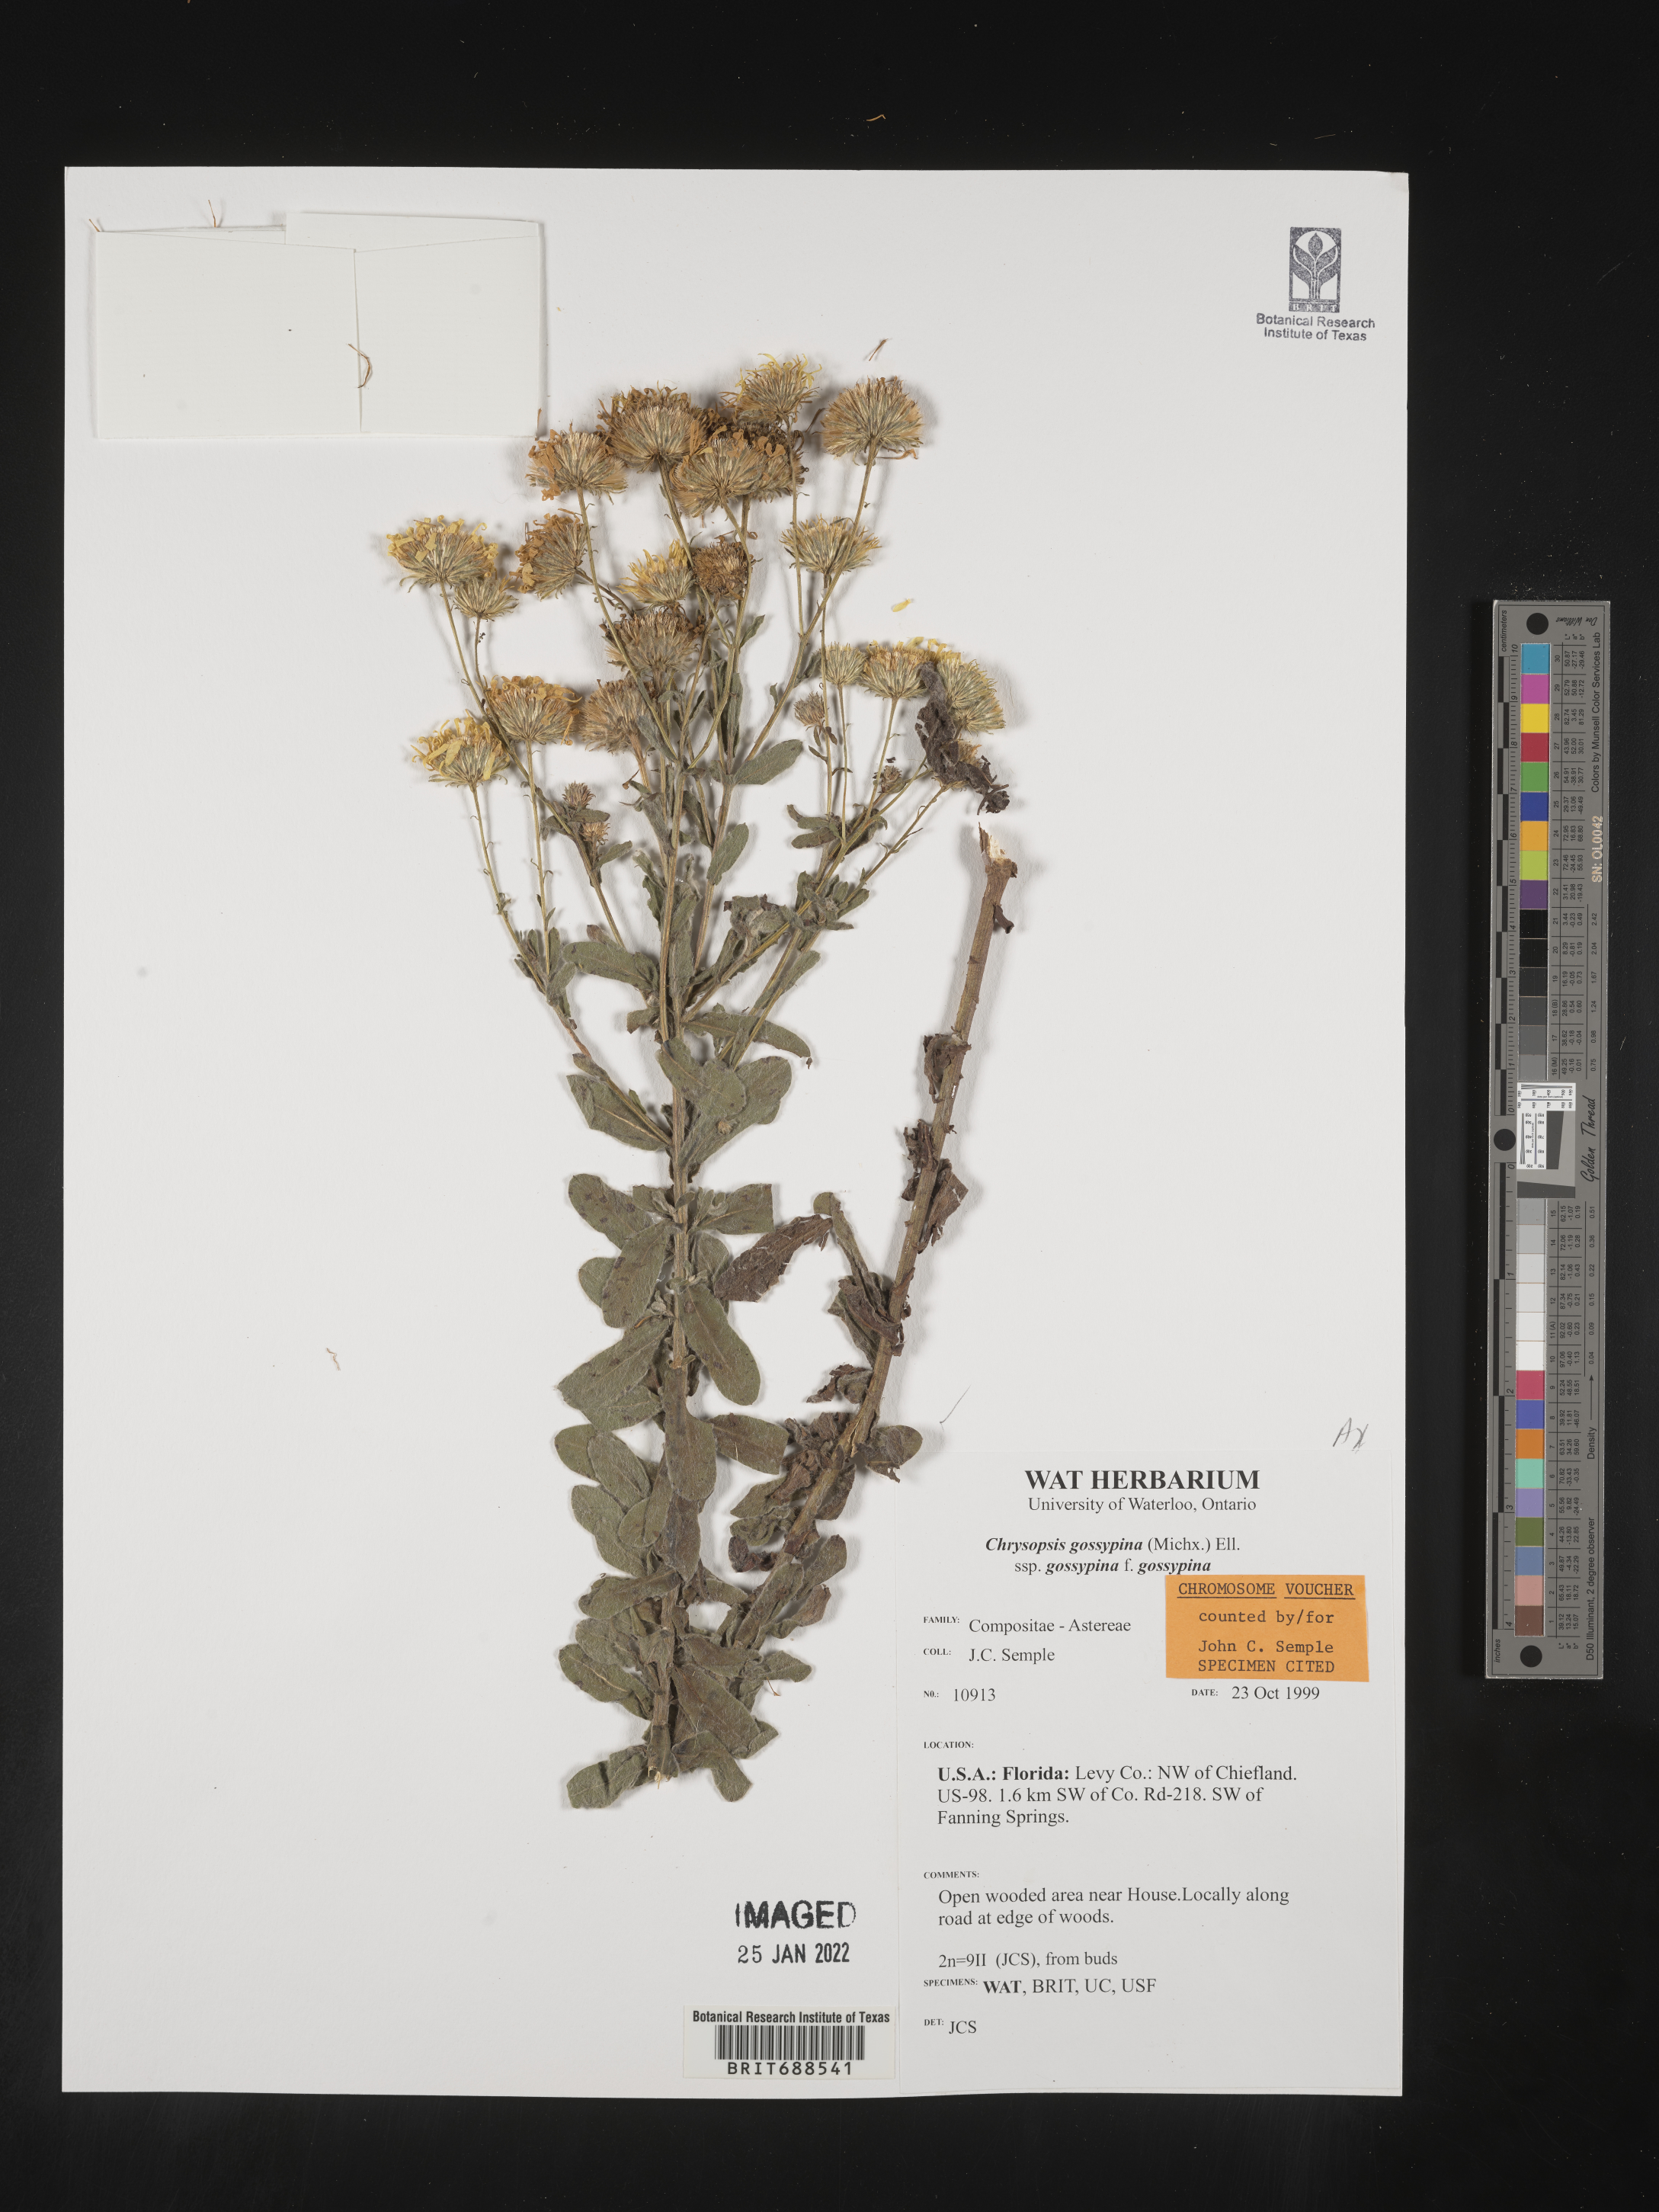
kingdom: Plantae
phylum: Tracheophyta
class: Magnoliopsida
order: Asterales
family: Asteraceae
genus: Chrysopsis
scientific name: Chrysopsis gossypina
